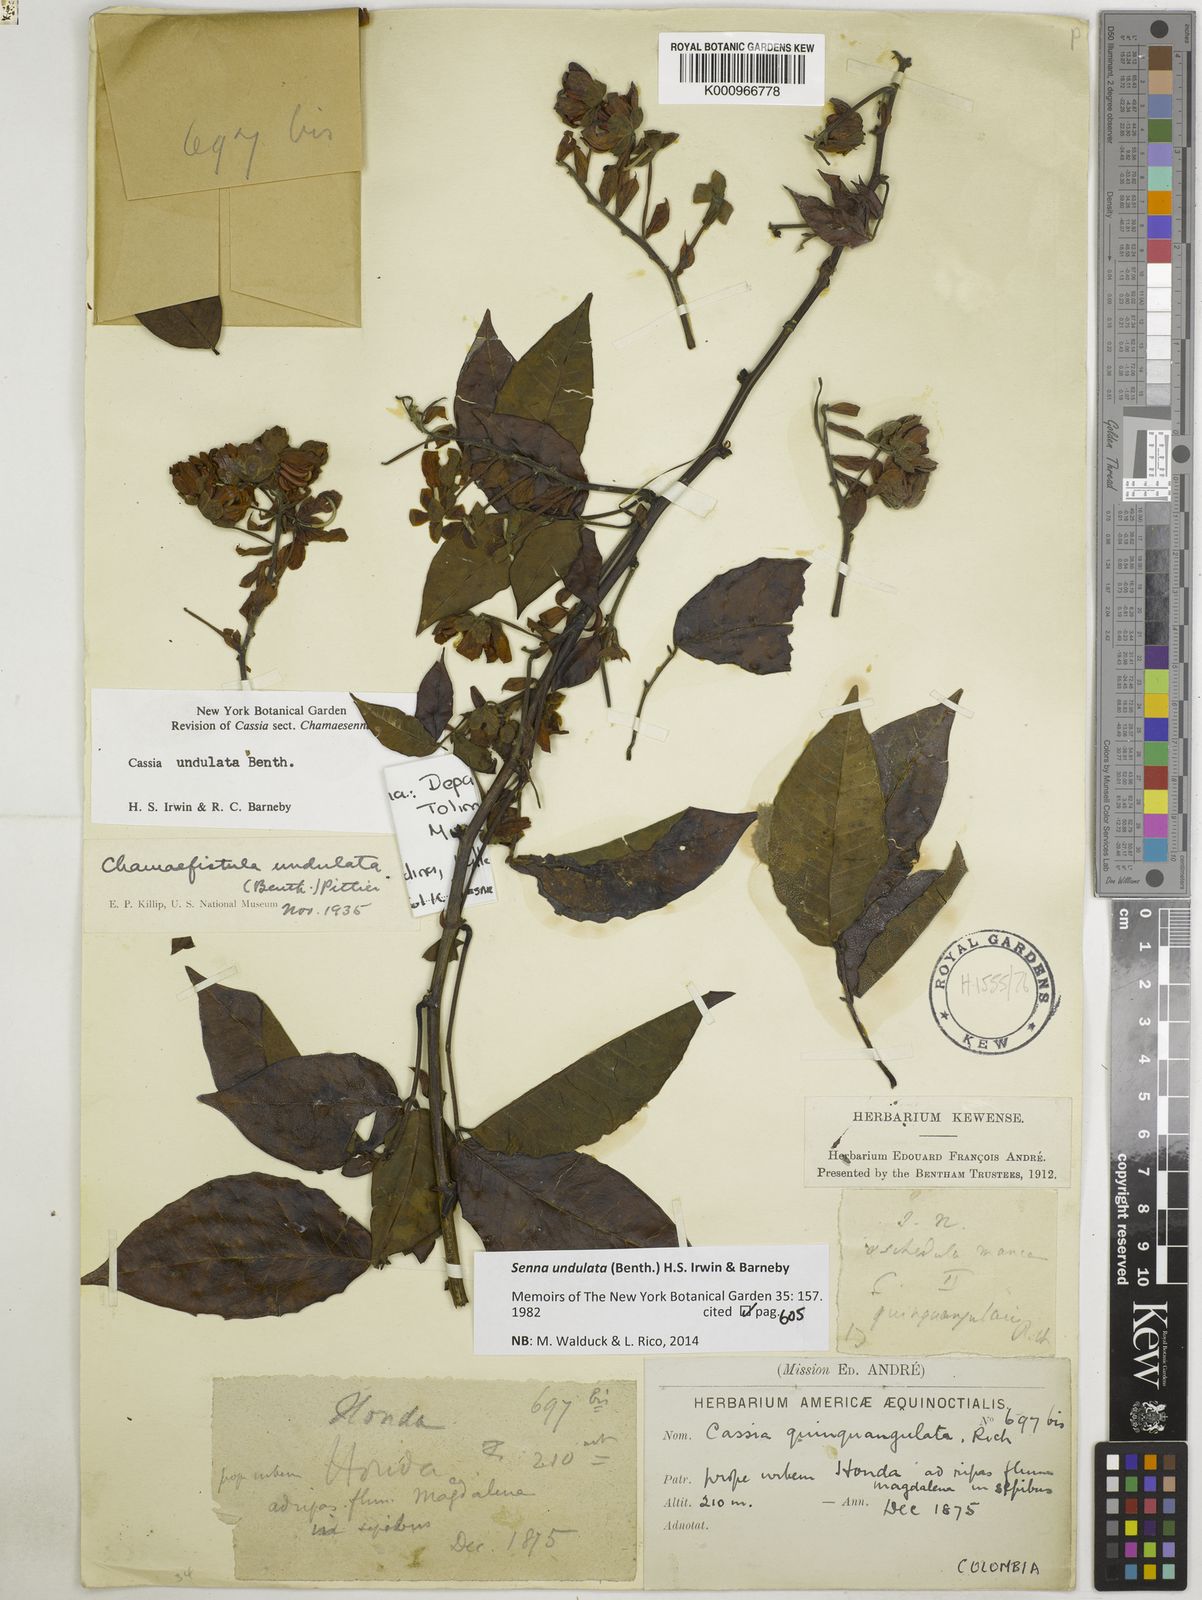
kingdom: Plantae
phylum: Tracheophyta
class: Magnoliopsida
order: Fabales
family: Fabaceae
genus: Senna
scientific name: Senna undulata
